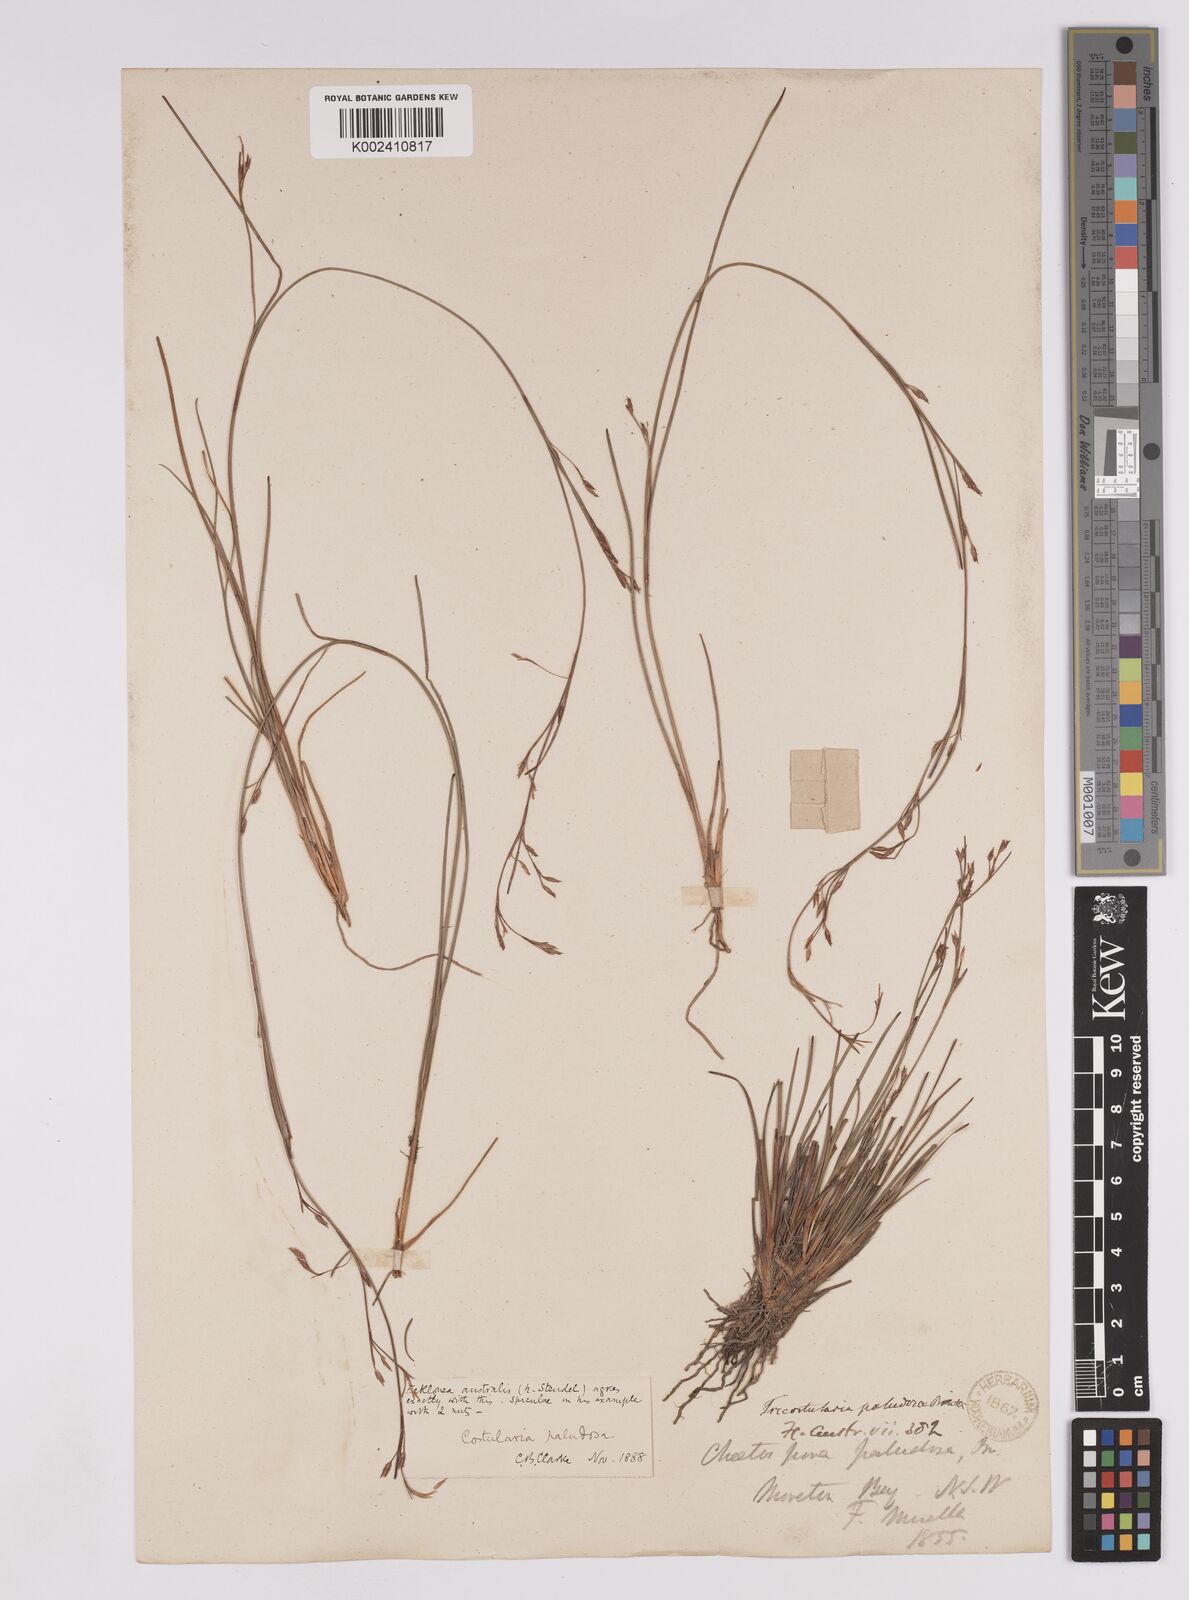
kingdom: Plantae
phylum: Tracheophyta
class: Liliopsida
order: Poales
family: Cyperaceae
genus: Anthelepis
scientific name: Anthelepis paludosa
